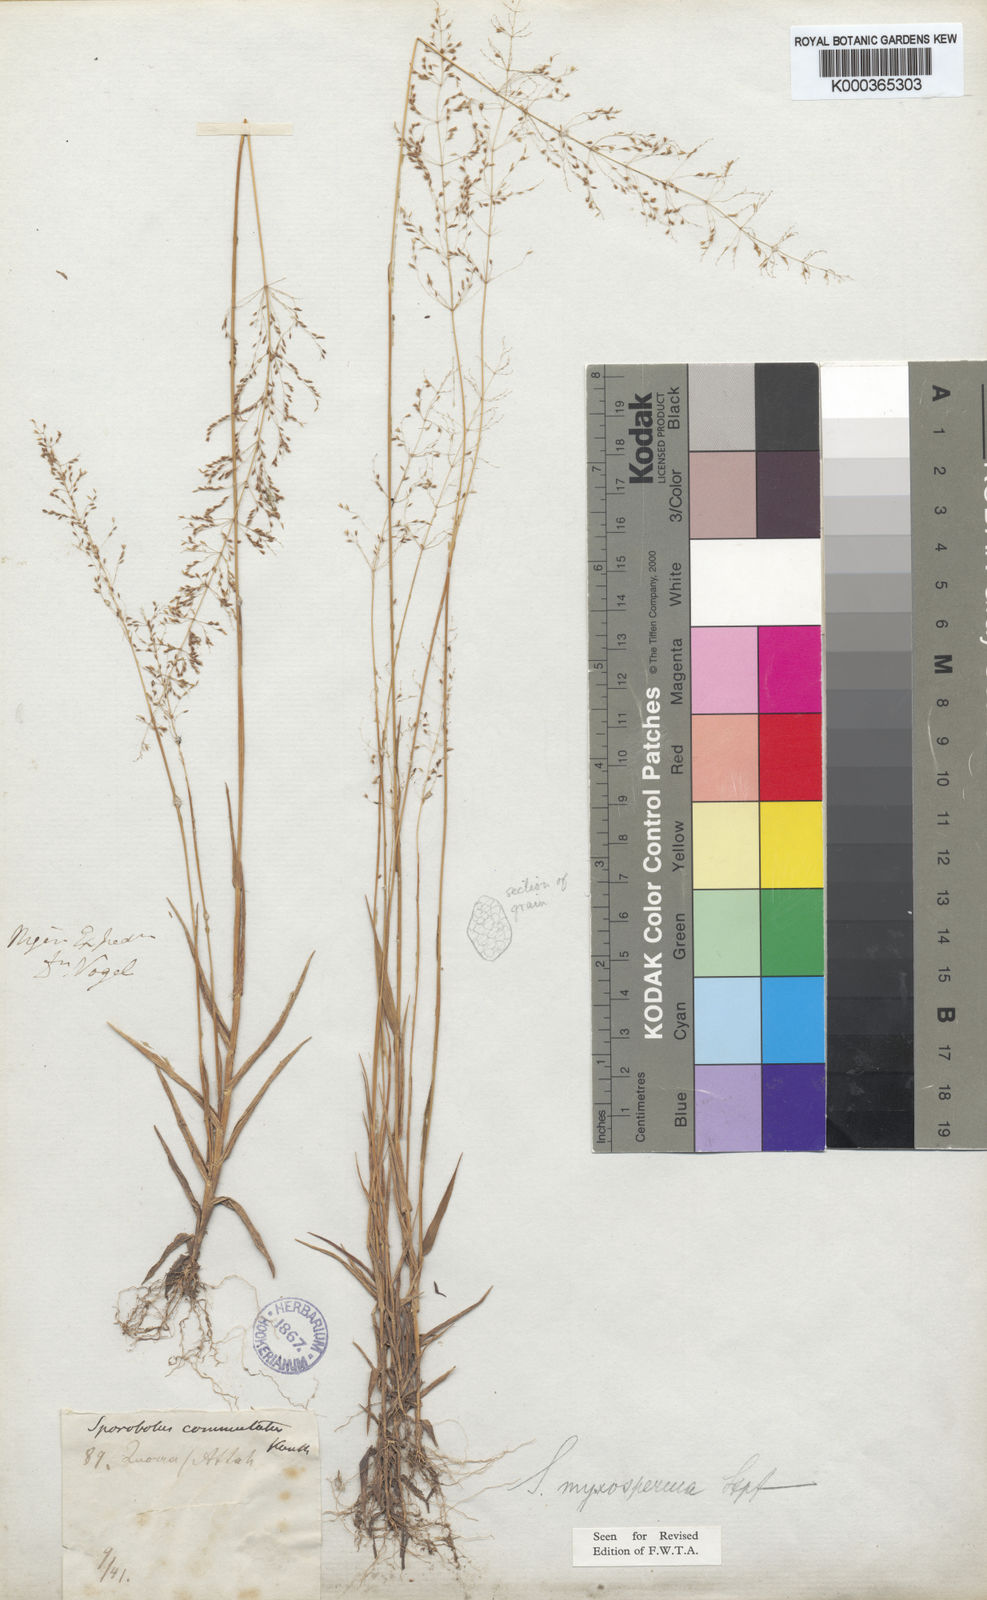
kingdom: Plantae
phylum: Tracheophyta
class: Liliopsida
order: Poales
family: Poaceae
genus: Sporobolus
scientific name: Sporobolus paniculatus
